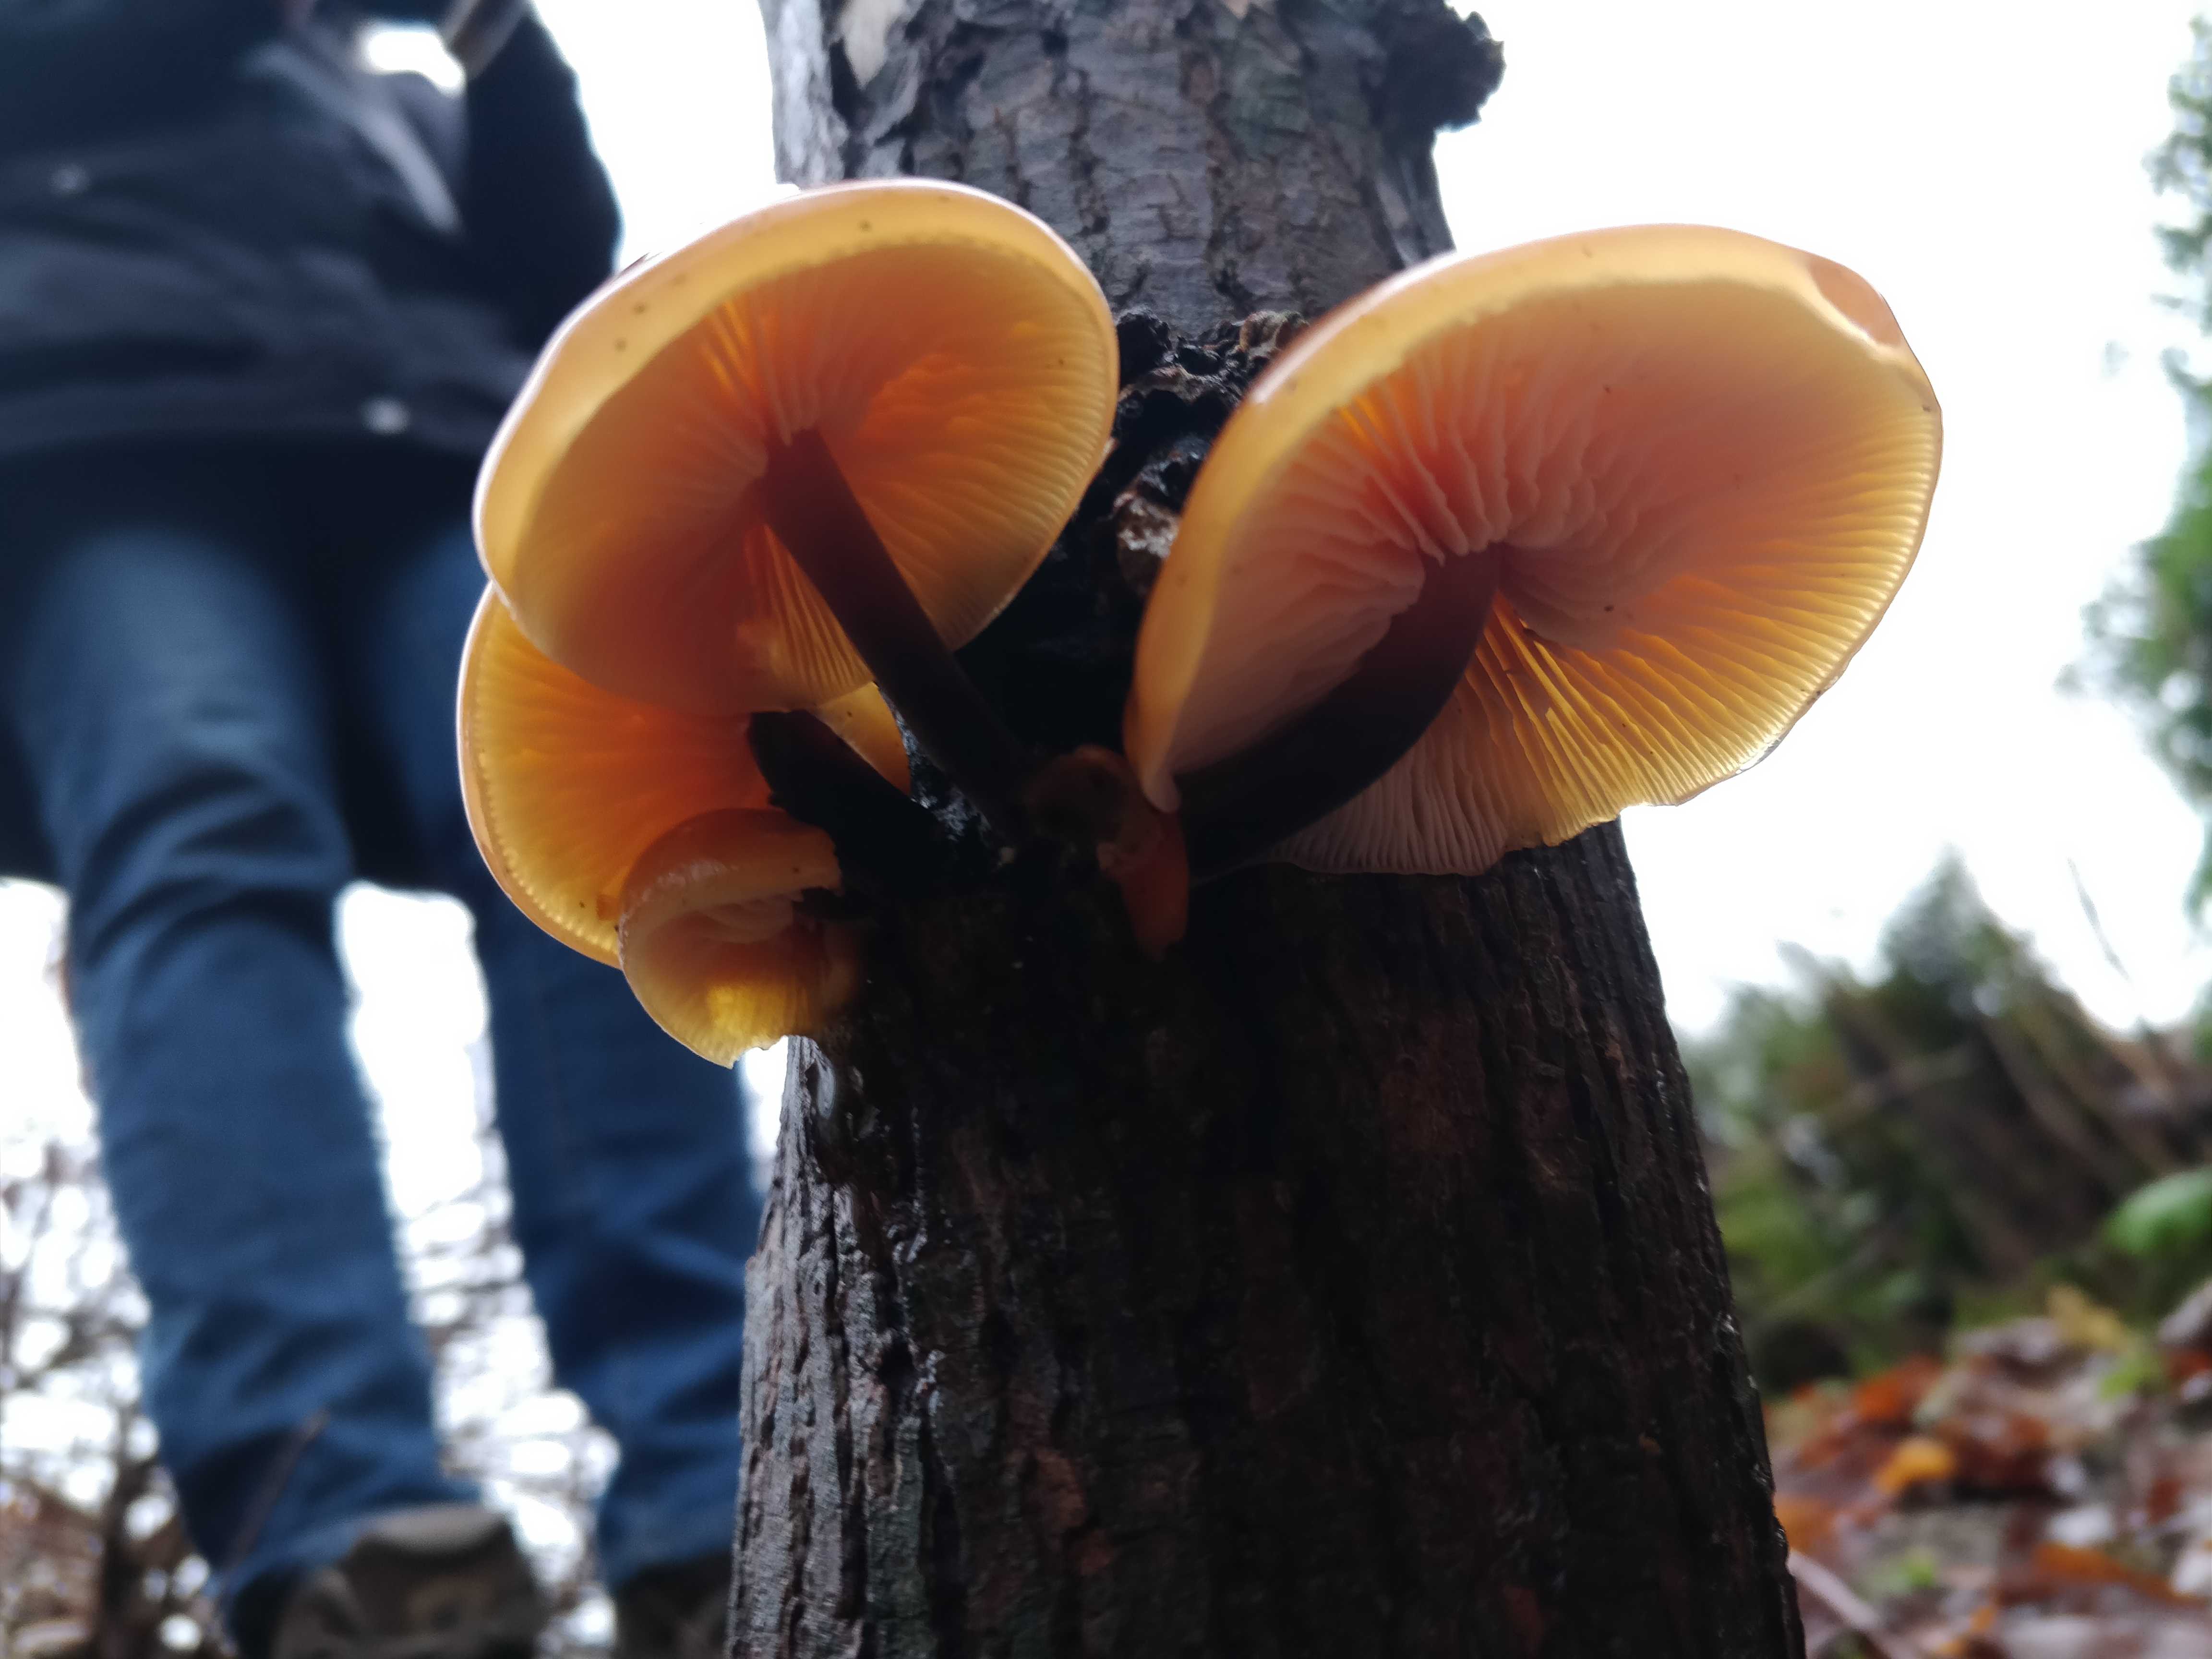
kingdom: Fungi
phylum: Basidiomycota
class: Agaricomycetes
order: Agaricales
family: Physalacriaceae
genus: Flammulina
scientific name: Flammulina velutipes
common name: gul fløjlsfod
